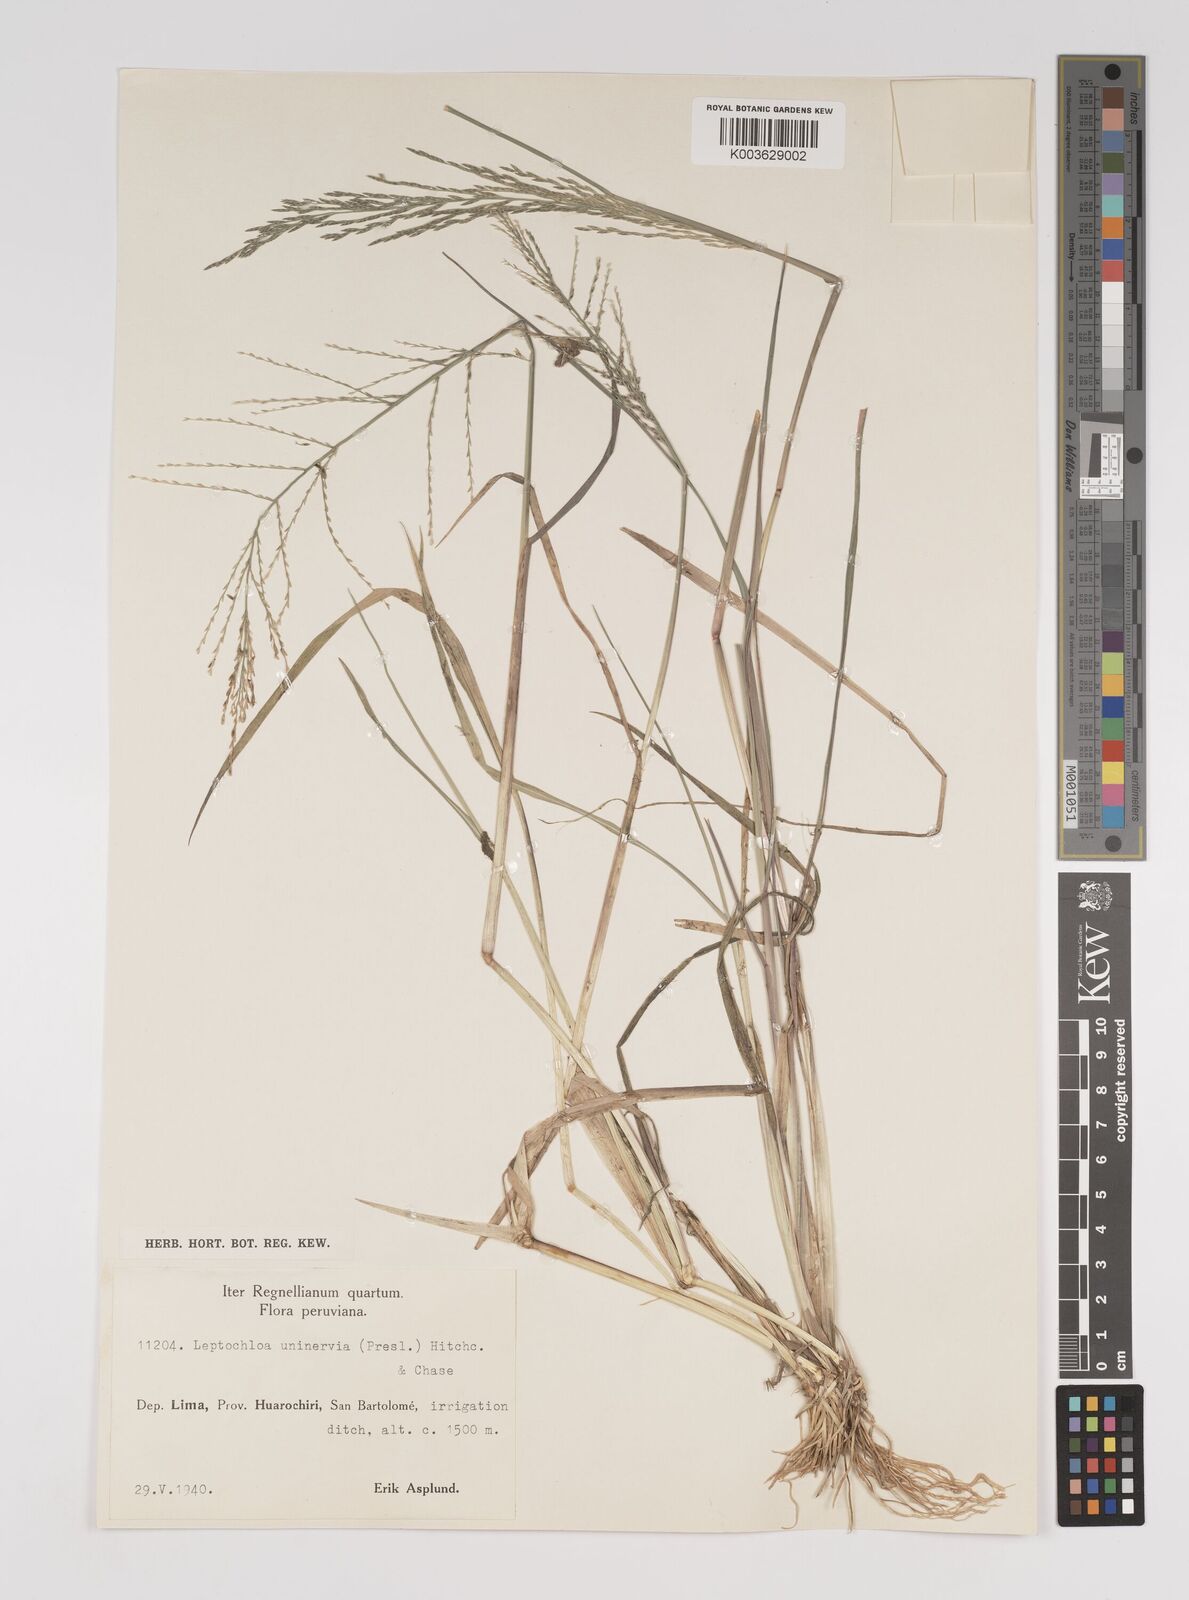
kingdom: Plantae
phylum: Tracheophyta
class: Liliopsida
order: Poales
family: Poaceae
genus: Diplachne
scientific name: Diplachne fusca
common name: Brown beetle grass
